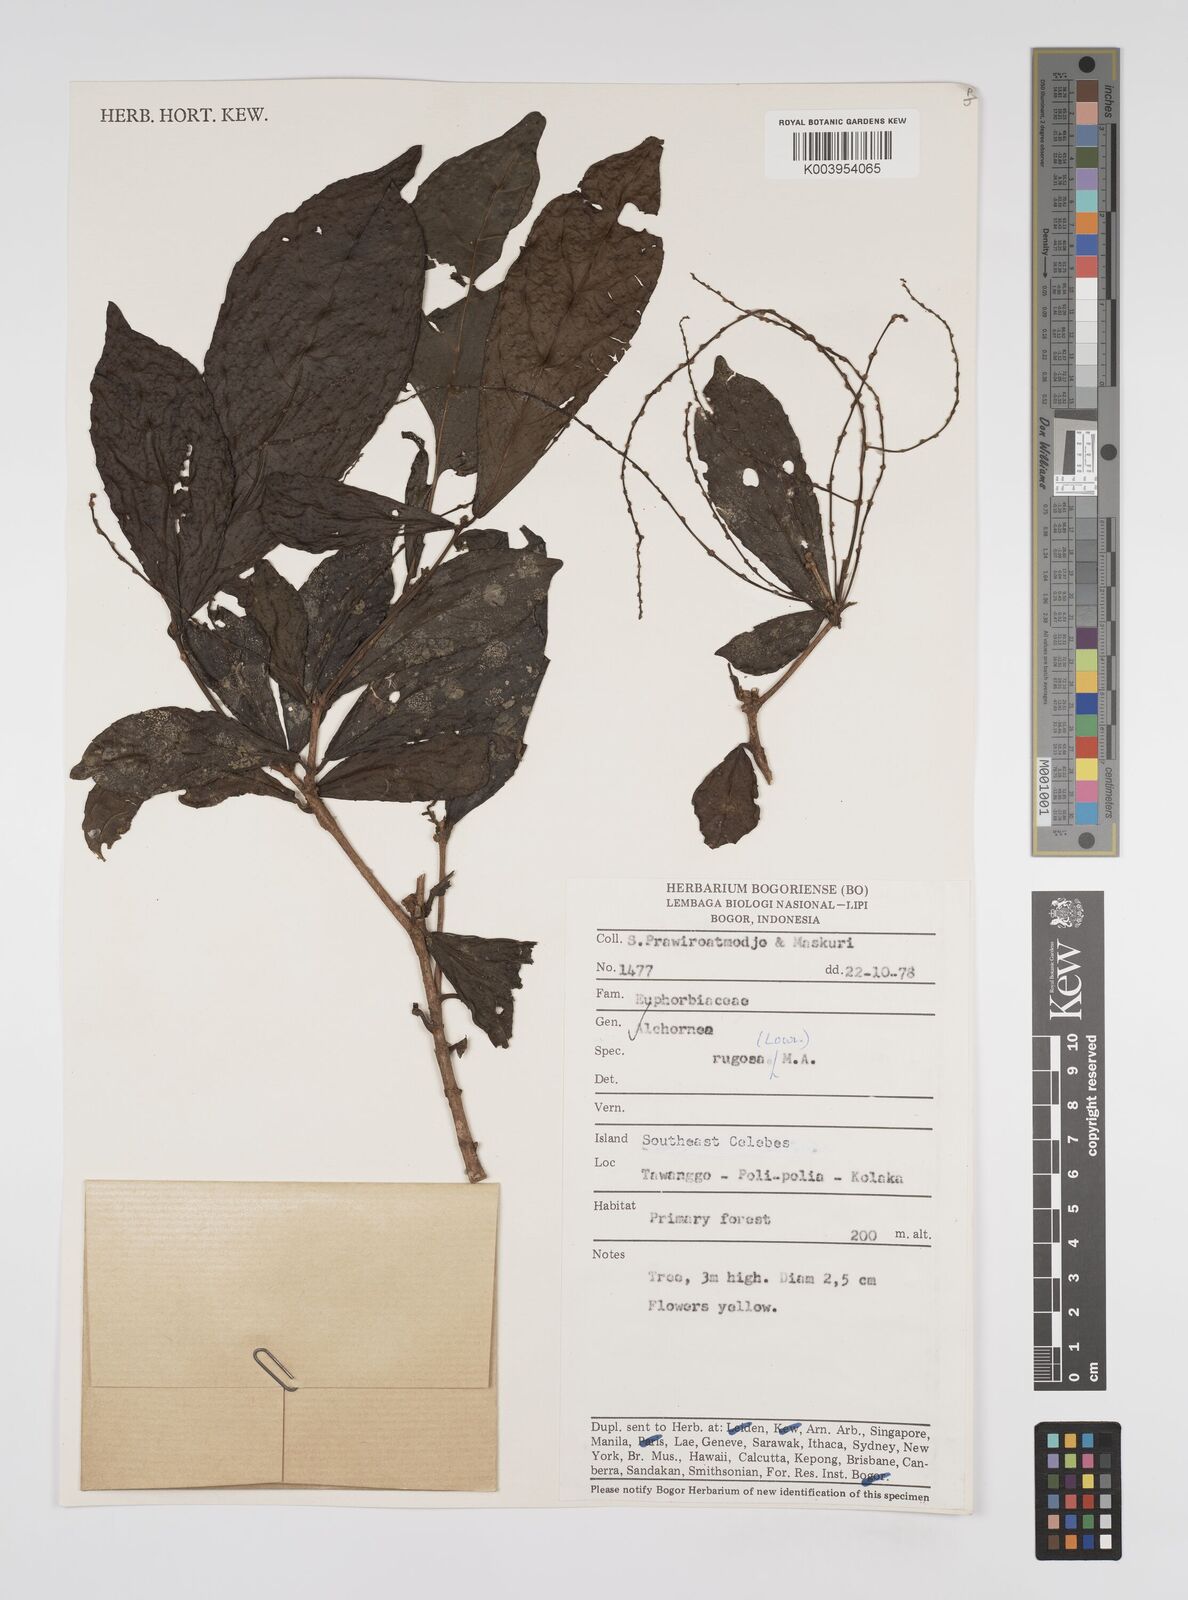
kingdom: Plantae
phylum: Tracheophyta
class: Magnoliopsida
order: Malpighiales
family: Euphorbiaceae
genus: Alchornea
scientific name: Alchornea rugosa
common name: Alchorntree
